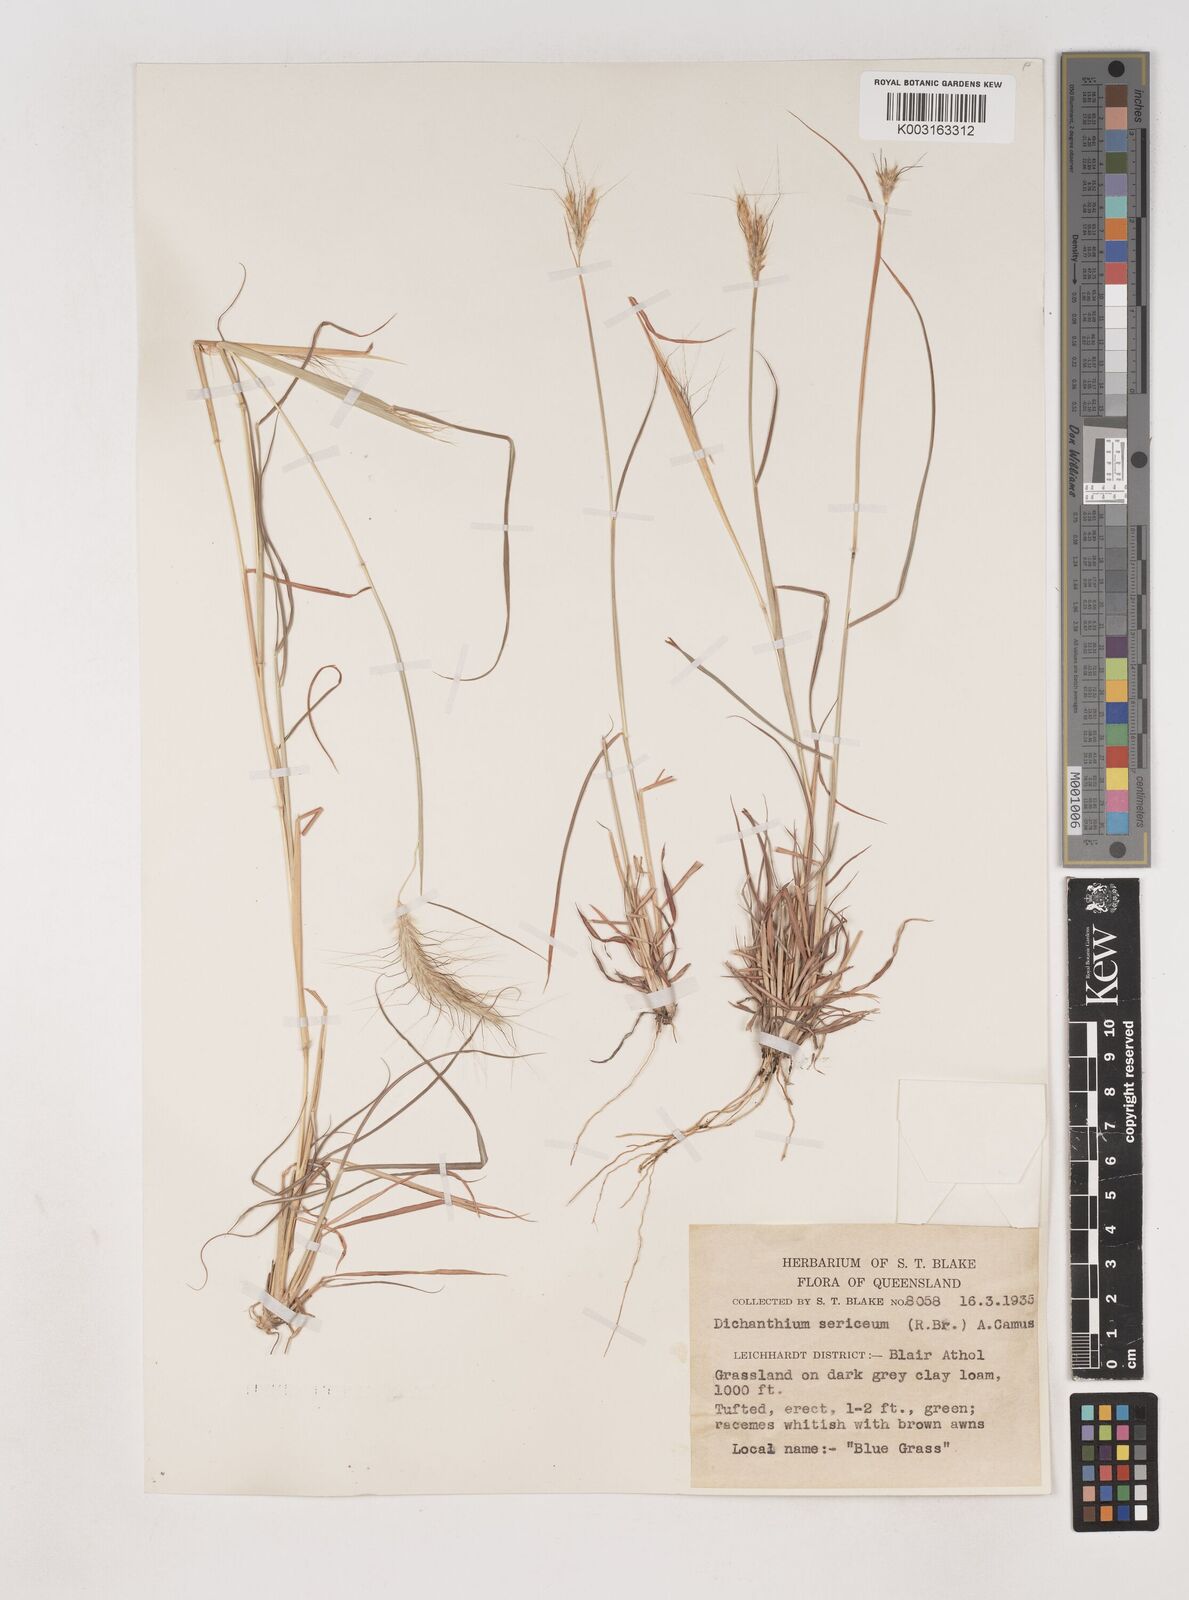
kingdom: Plantae
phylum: Tracheophyta
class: Liliopsida
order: Poales
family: Poaceae
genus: Dichanthium
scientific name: Dichanthium sericeum
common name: Silky bluestem
